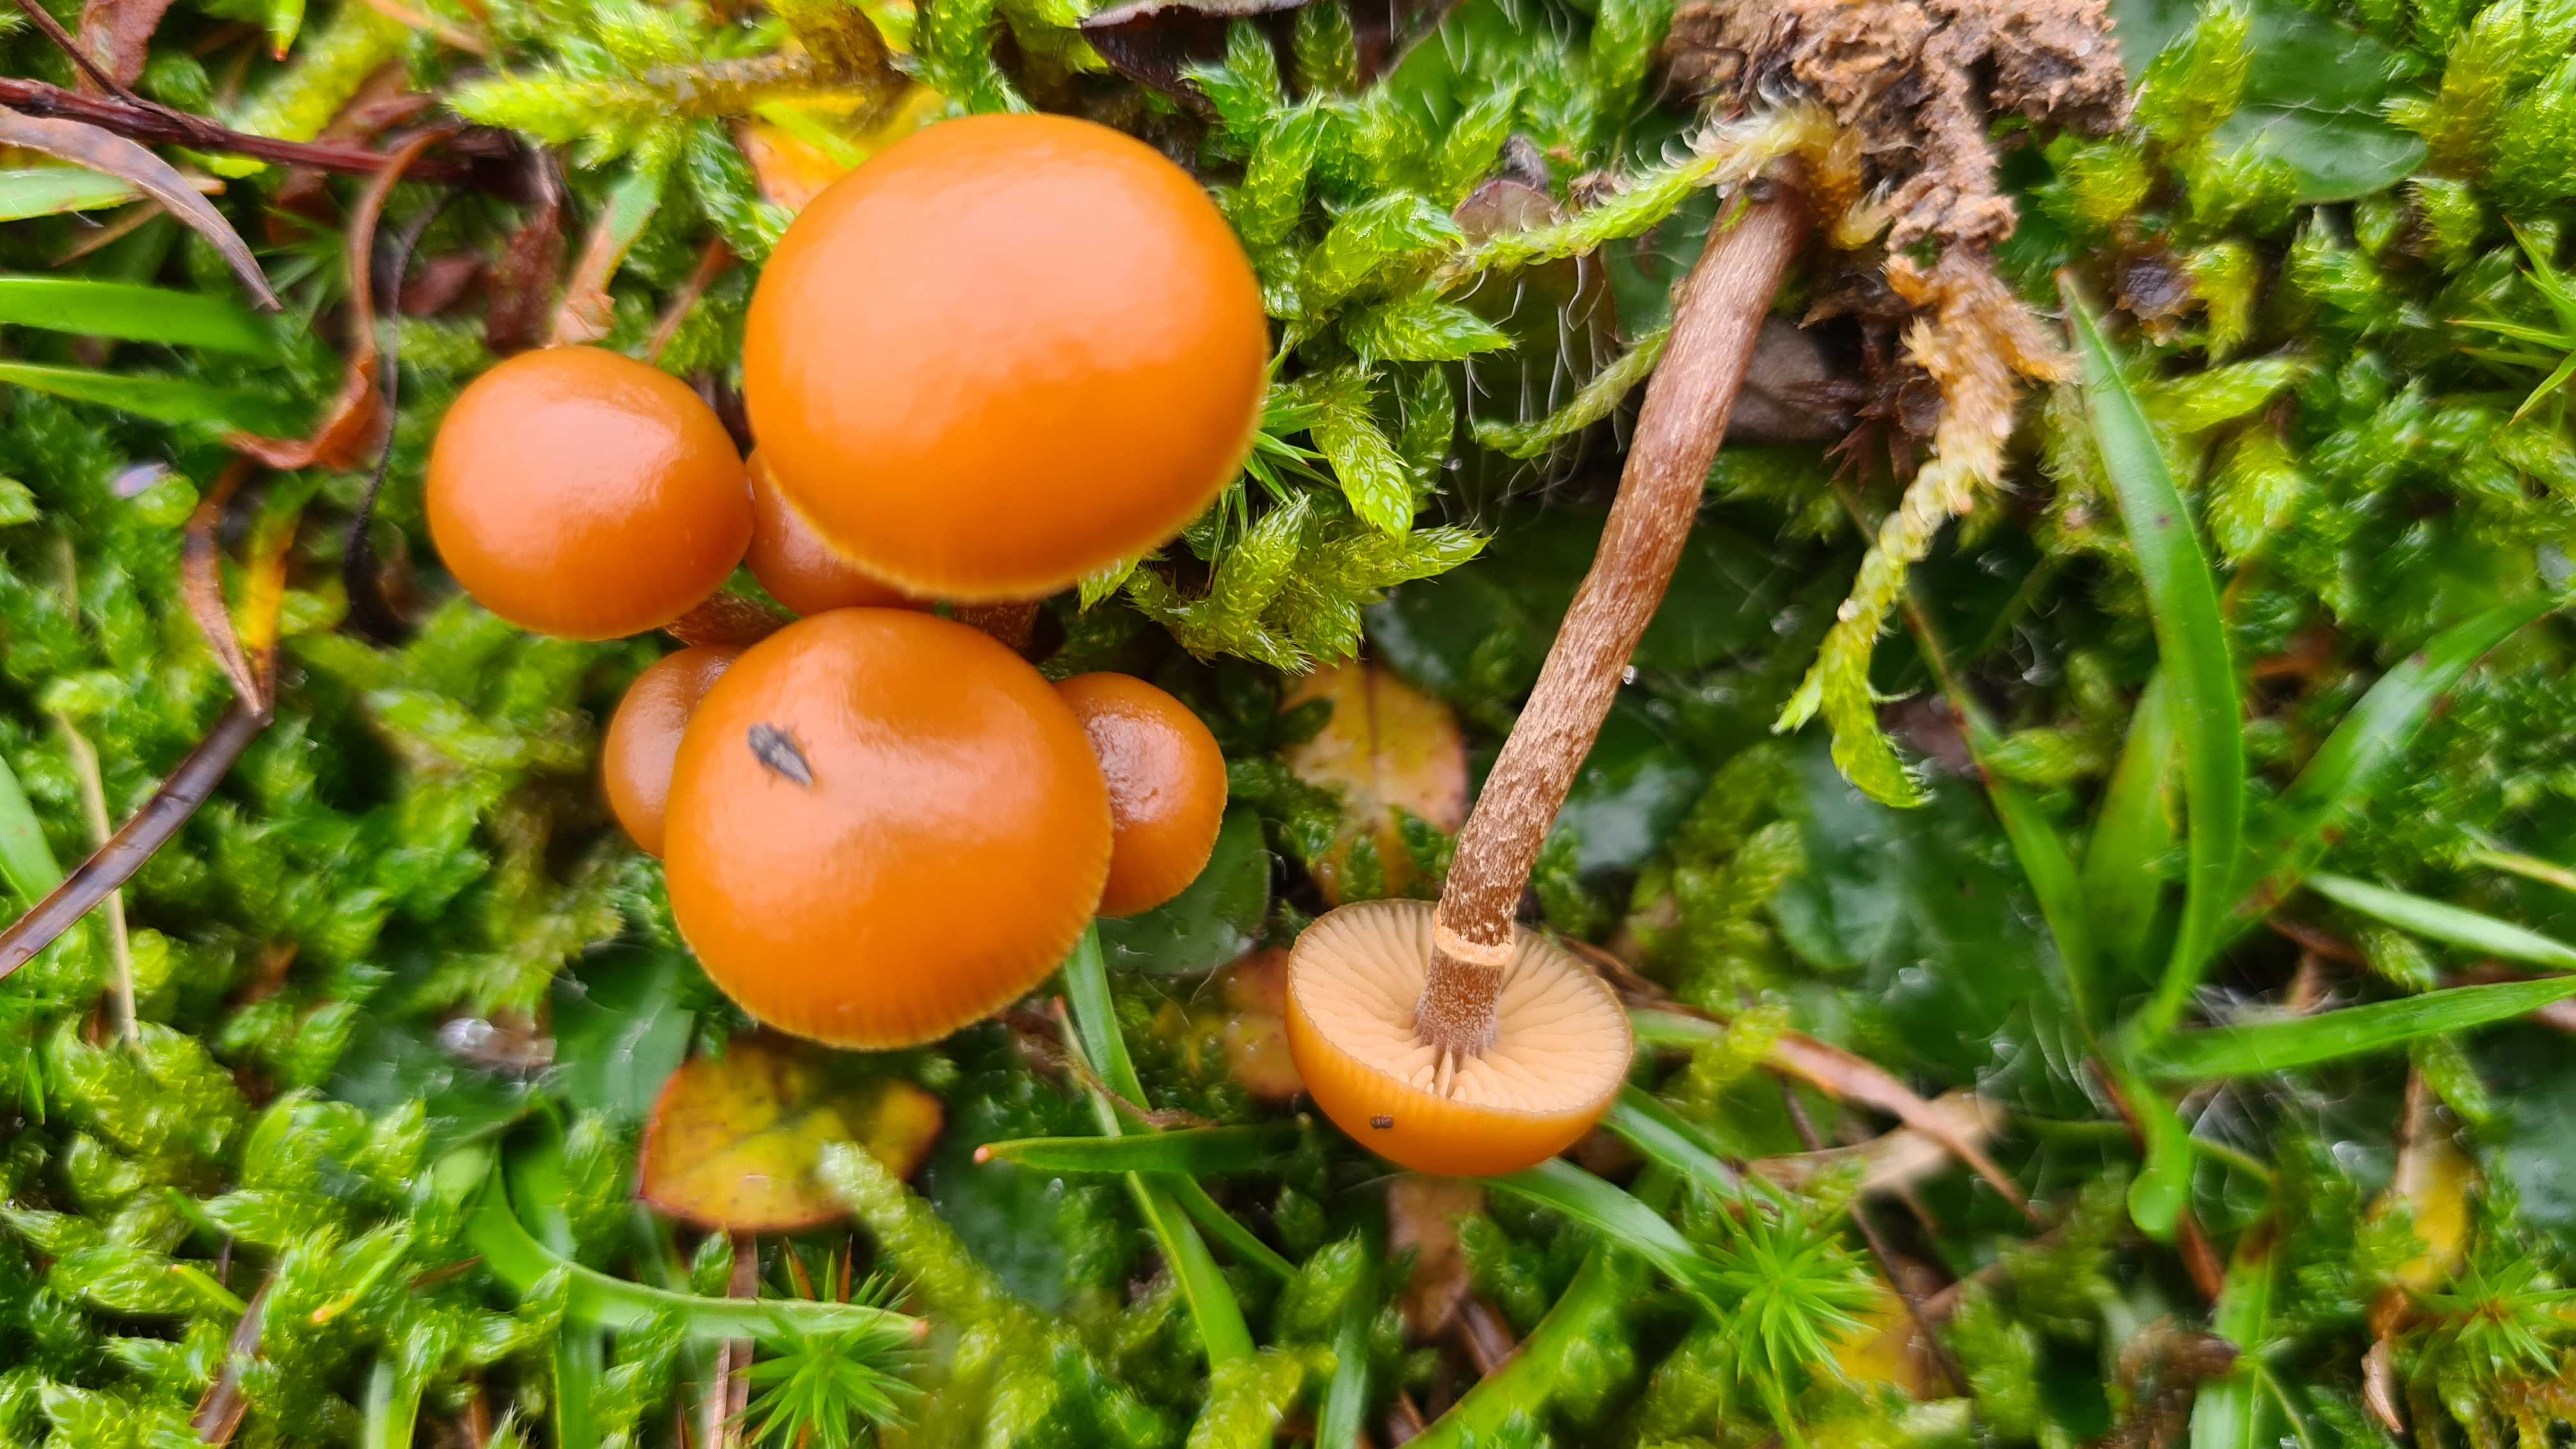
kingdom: Fungi
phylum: Basidiomycota
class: Agaricomycetes
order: Agaricales
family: Hymenogastraceae
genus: Galerina
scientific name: Galerina marginata
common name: randbæltet hjelmhat
